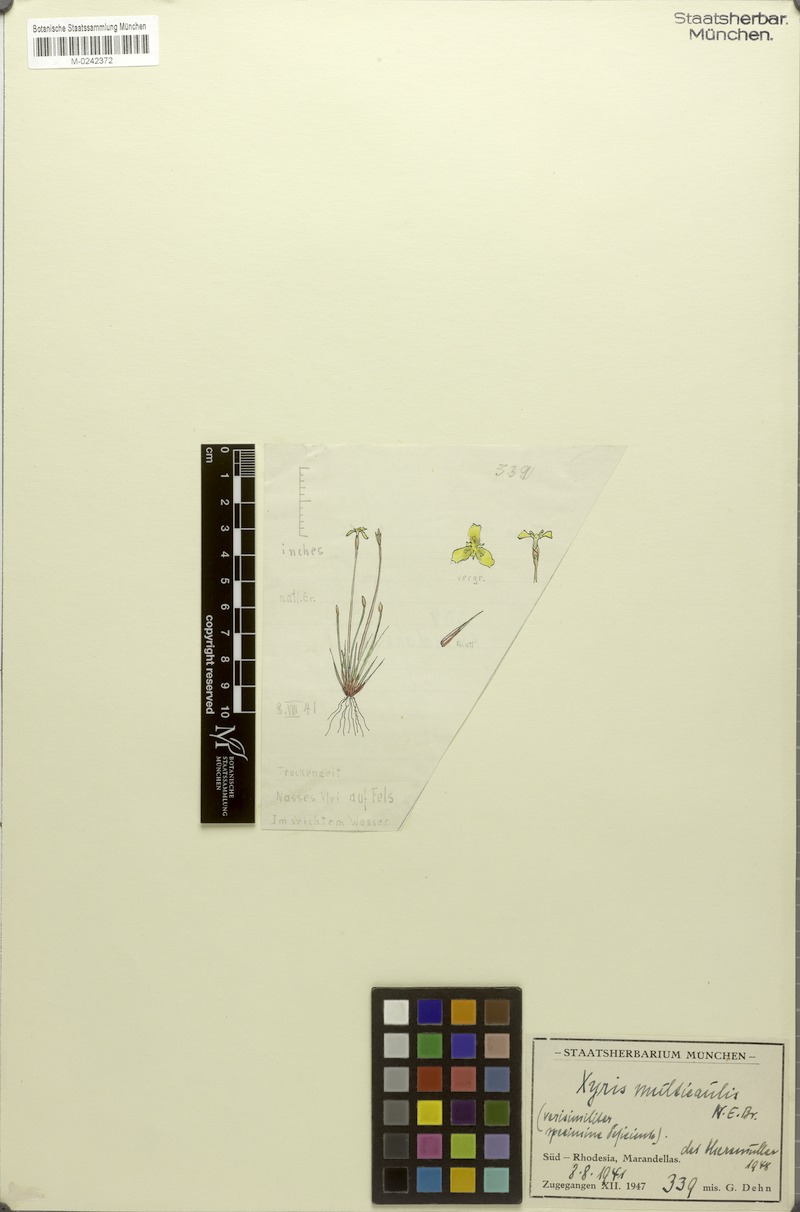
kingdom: Plantae
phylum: Tracheophyta
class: Liliopsida
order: Poales
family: Xyridaceae
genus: Xyris
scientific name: Xyris straminea
